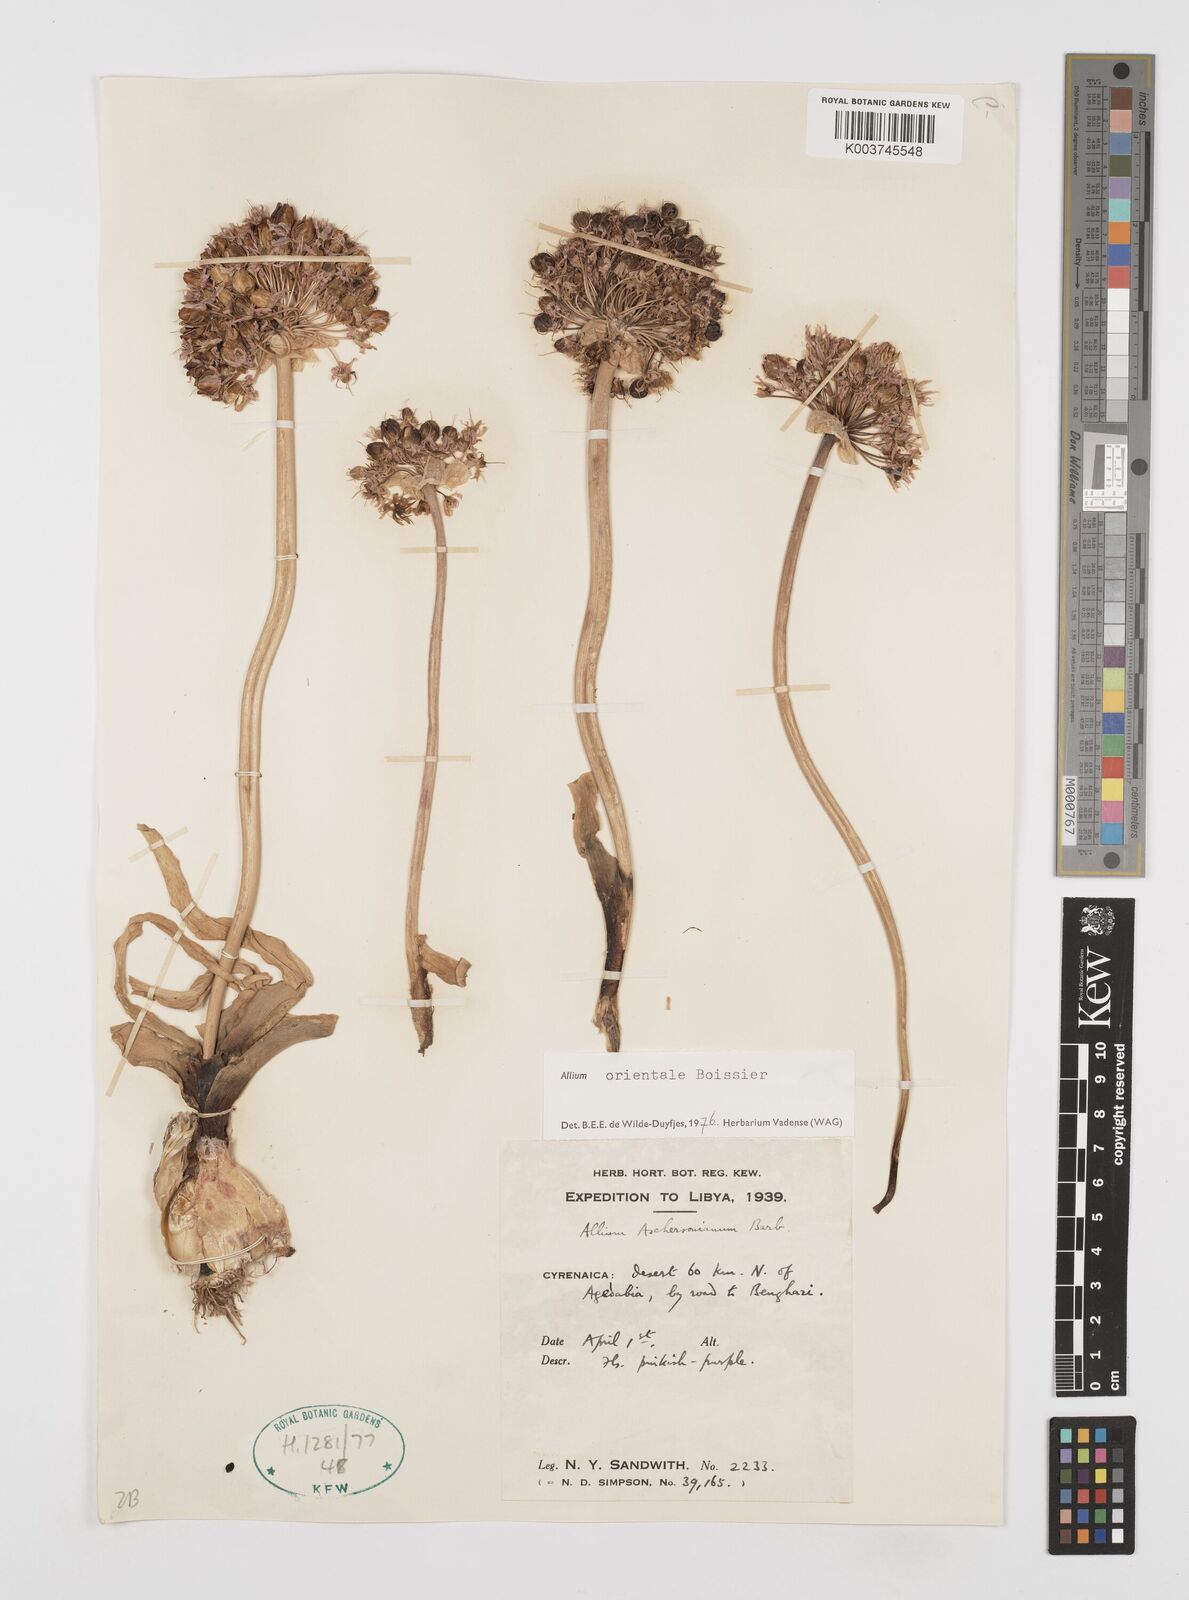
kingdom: Plantae
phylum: Tracheophyta
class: Liliopsida
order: Asparagales
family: Amaryllidaceae
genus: Allium
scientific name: Allium orientale
